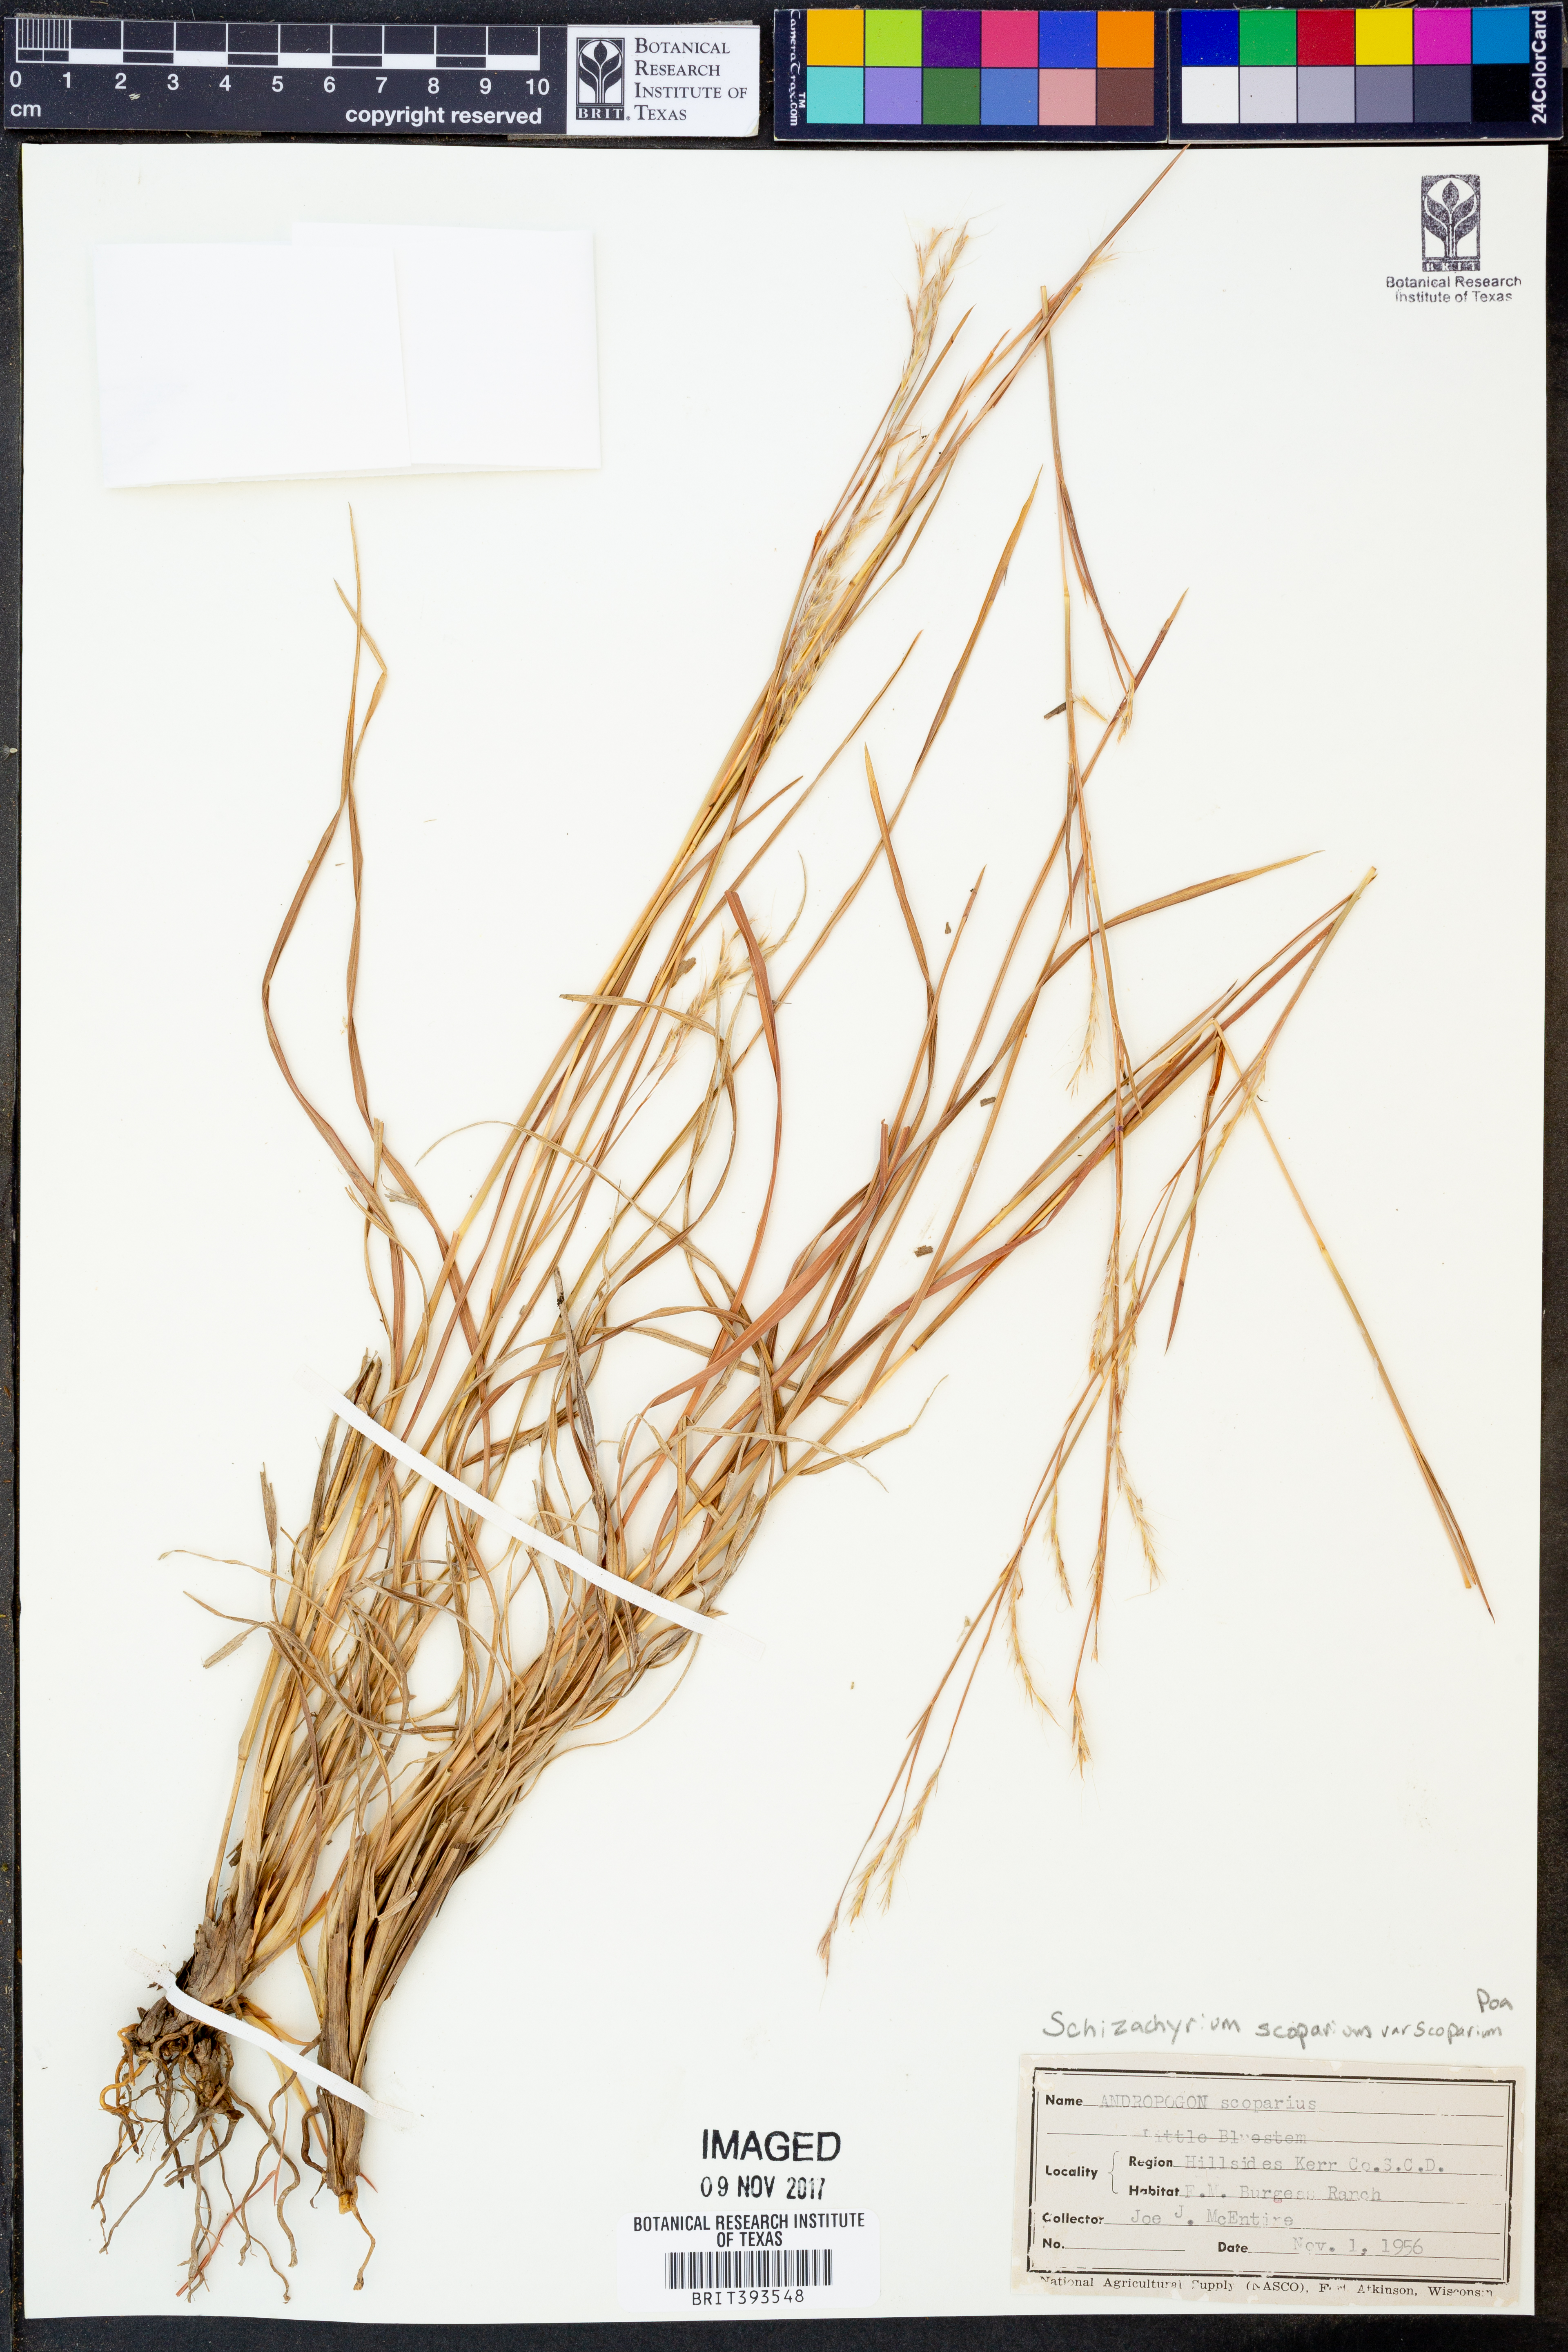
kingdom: Plantae
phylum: Tracheophyta
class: Liliopsida
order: Poales
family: Poaceae
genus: Schizachyrium
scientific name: Schizachyrium scoparium
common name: Little bluestem
